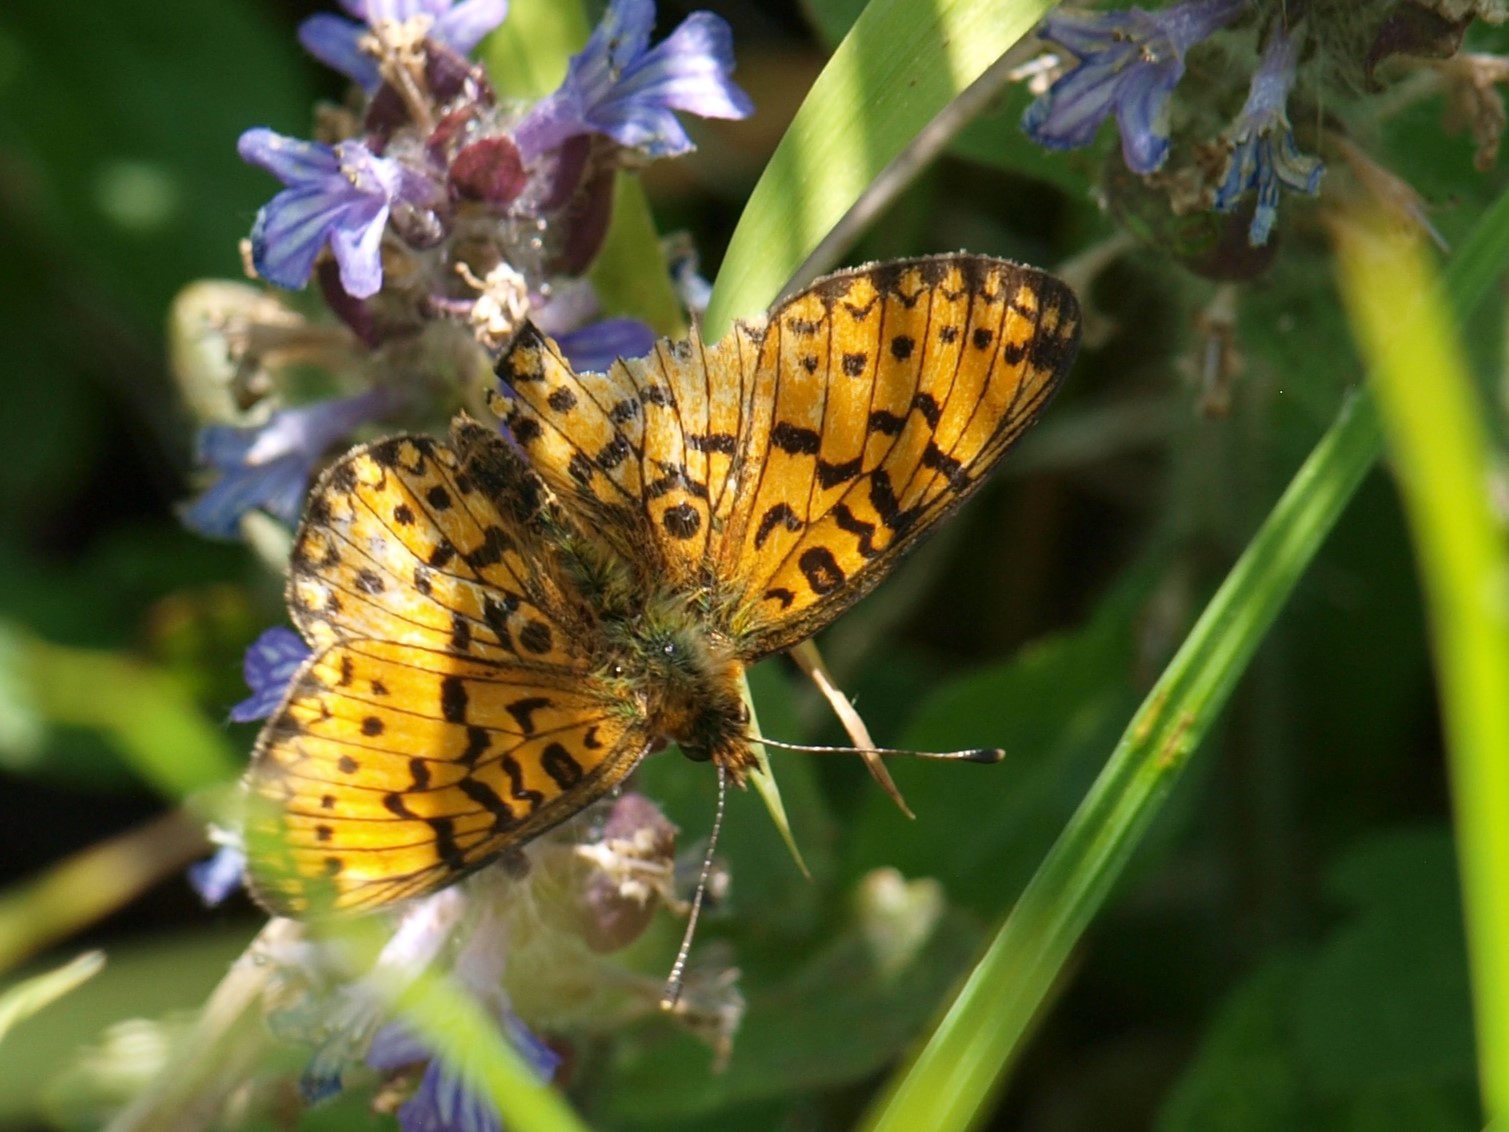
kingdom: Animalia
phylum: Arthropoda
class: Insecta
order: Lepidoptera
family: Nymphalidae
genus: Boloria
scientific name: Boloria selene
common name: Brunlig perlemorsommerfugl
